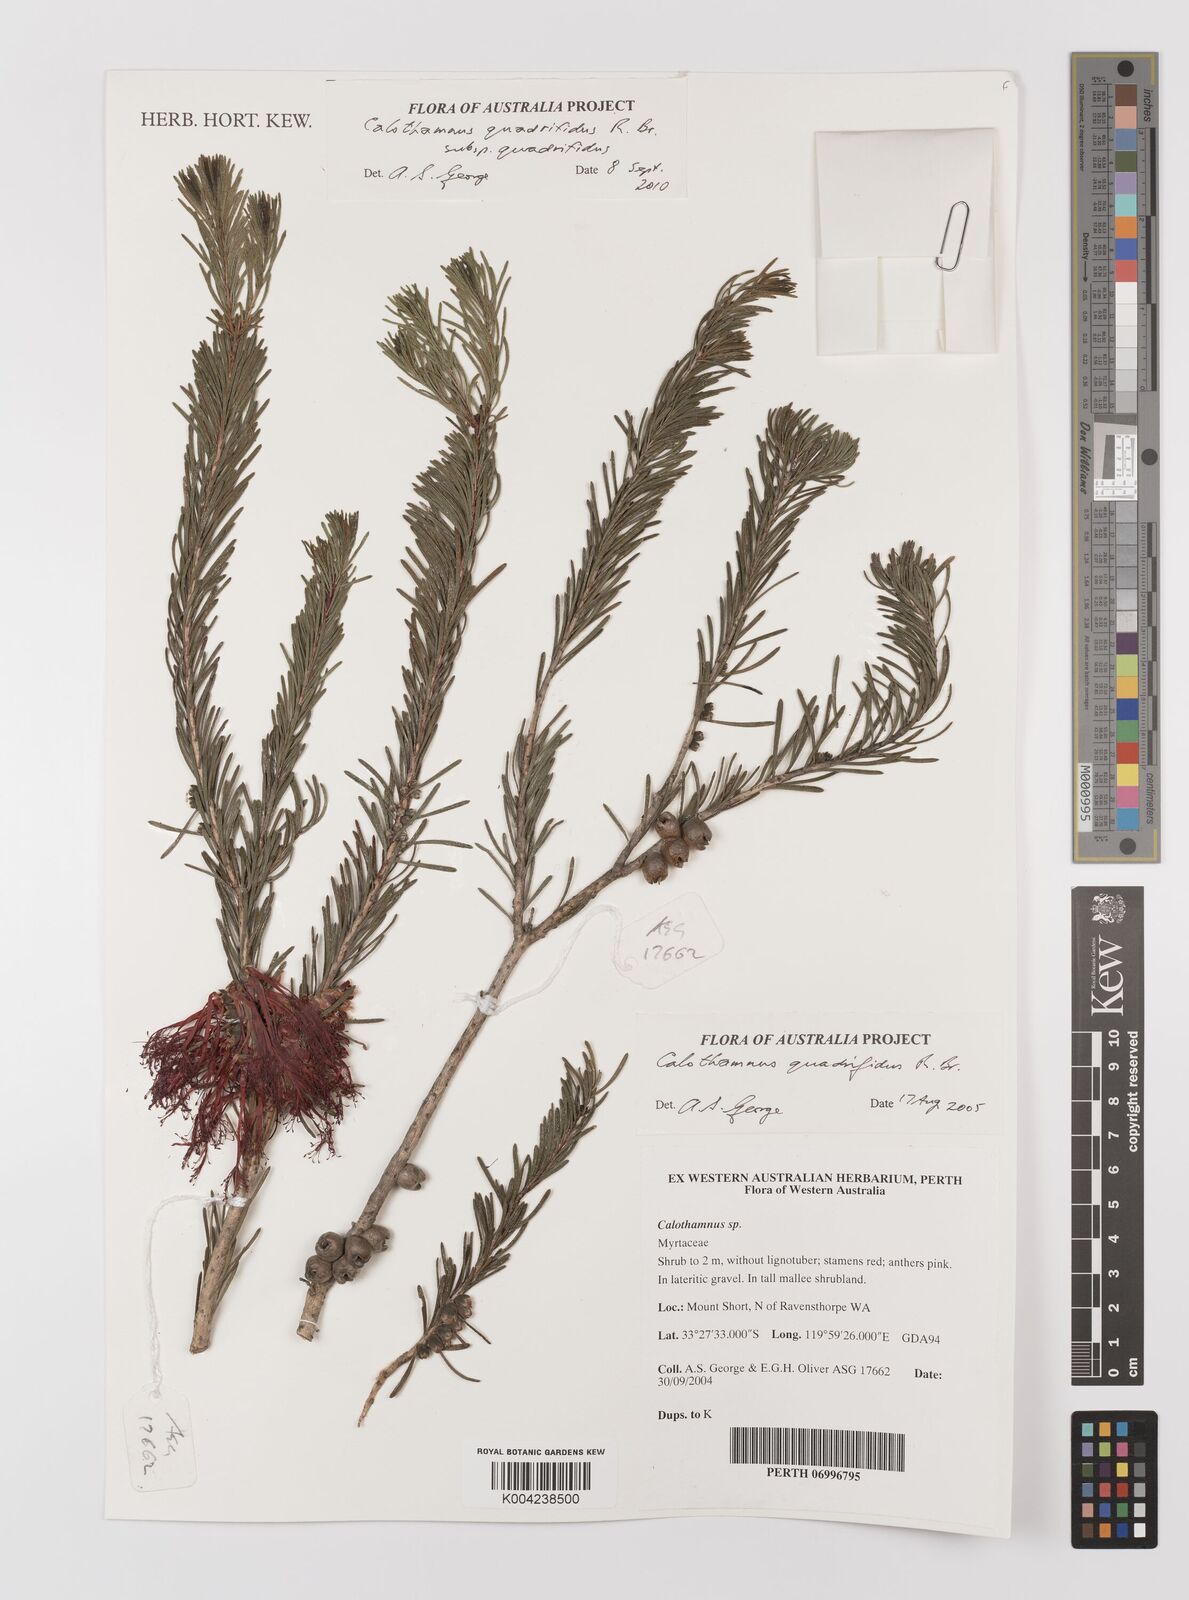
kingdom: Plantae
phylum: Tracheophyta
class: Magnoliopsida
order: Myrtales
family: Myrtaceae
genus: Melaleuca
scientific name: Melaleuca quadrifida
